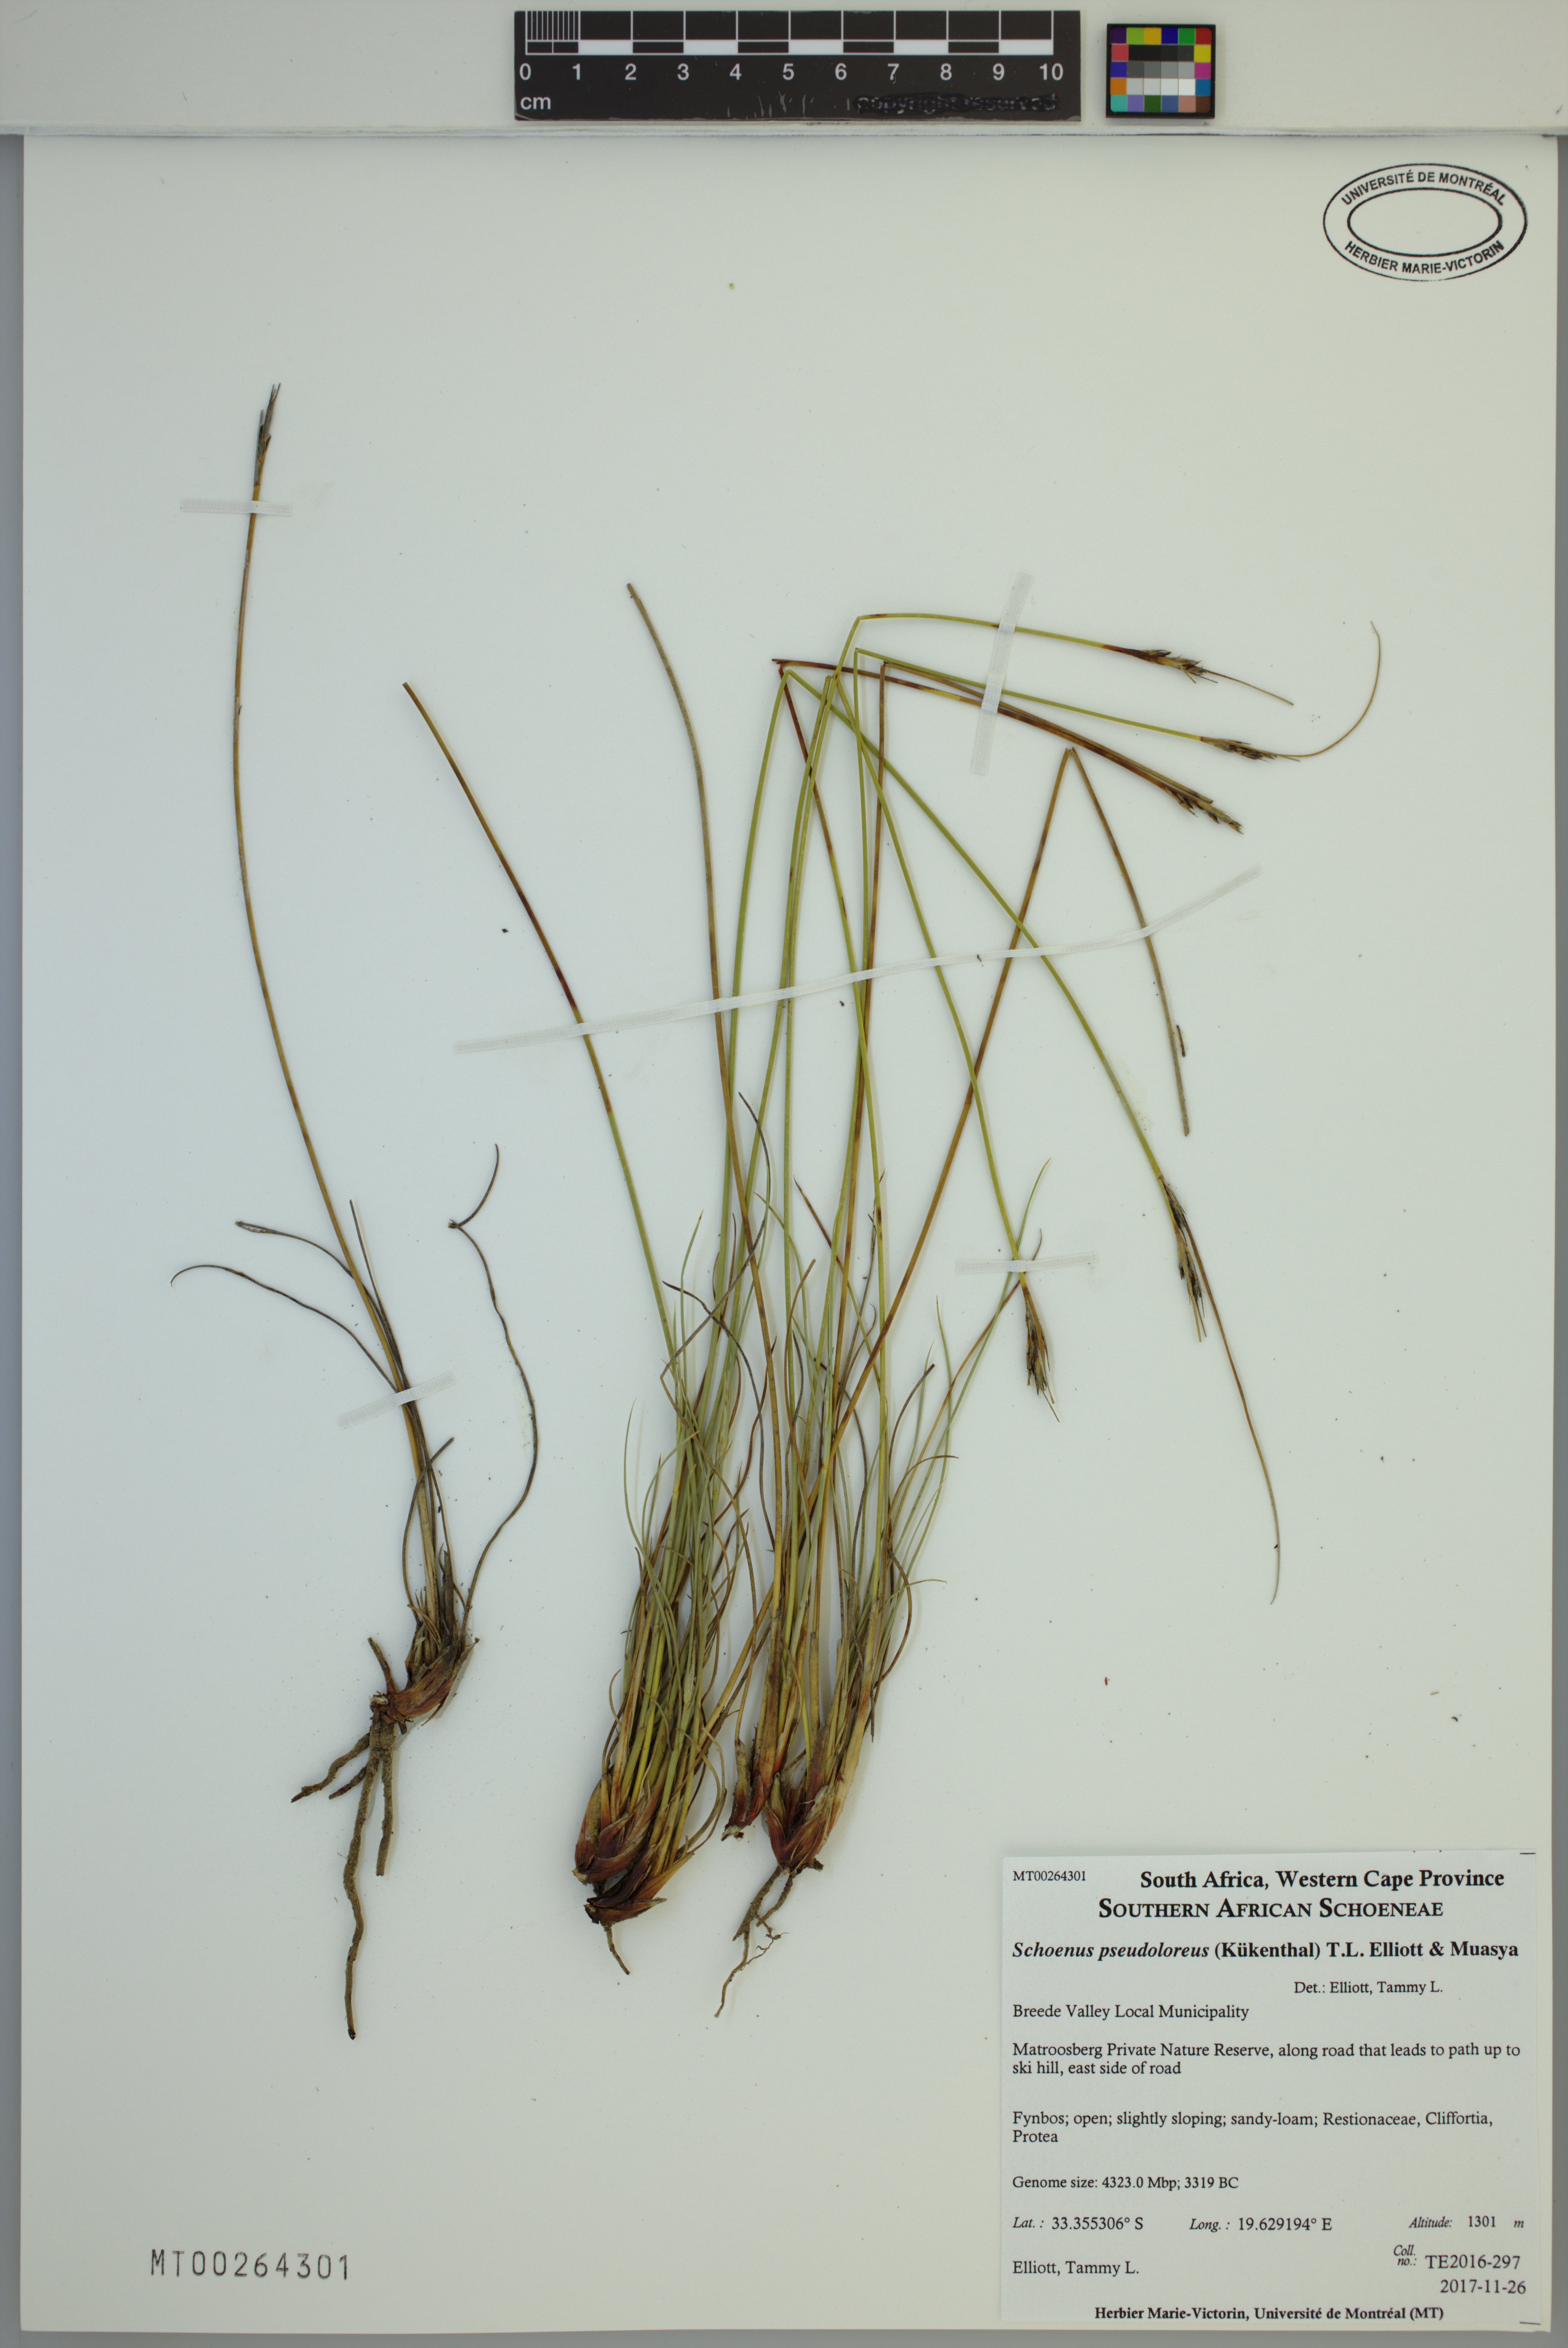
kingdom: Plantae
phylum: Tracheophyta
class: Liliopsida
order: Poales
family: Cyperaceae
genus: Schoenus
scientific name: Schoenus pseudoloreus
